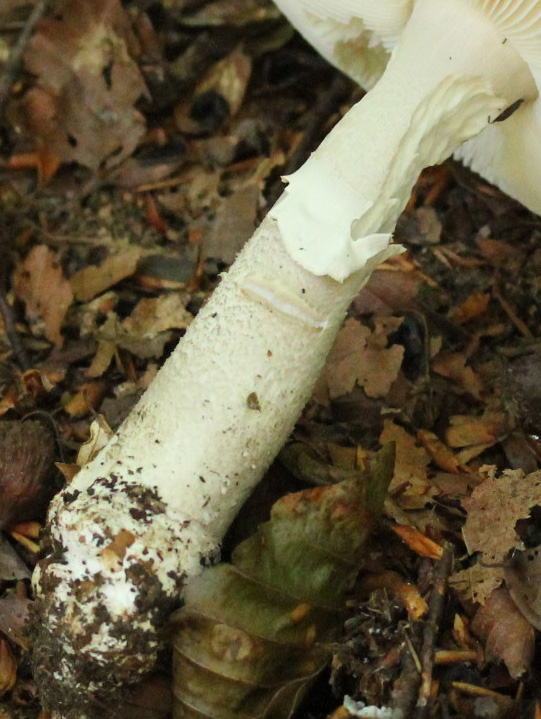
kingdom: Fungi
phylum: Basidiomycota
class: Agaricomycetes
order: Agaricales
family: Amanitaceae
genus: Amanita
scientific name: Amanita
